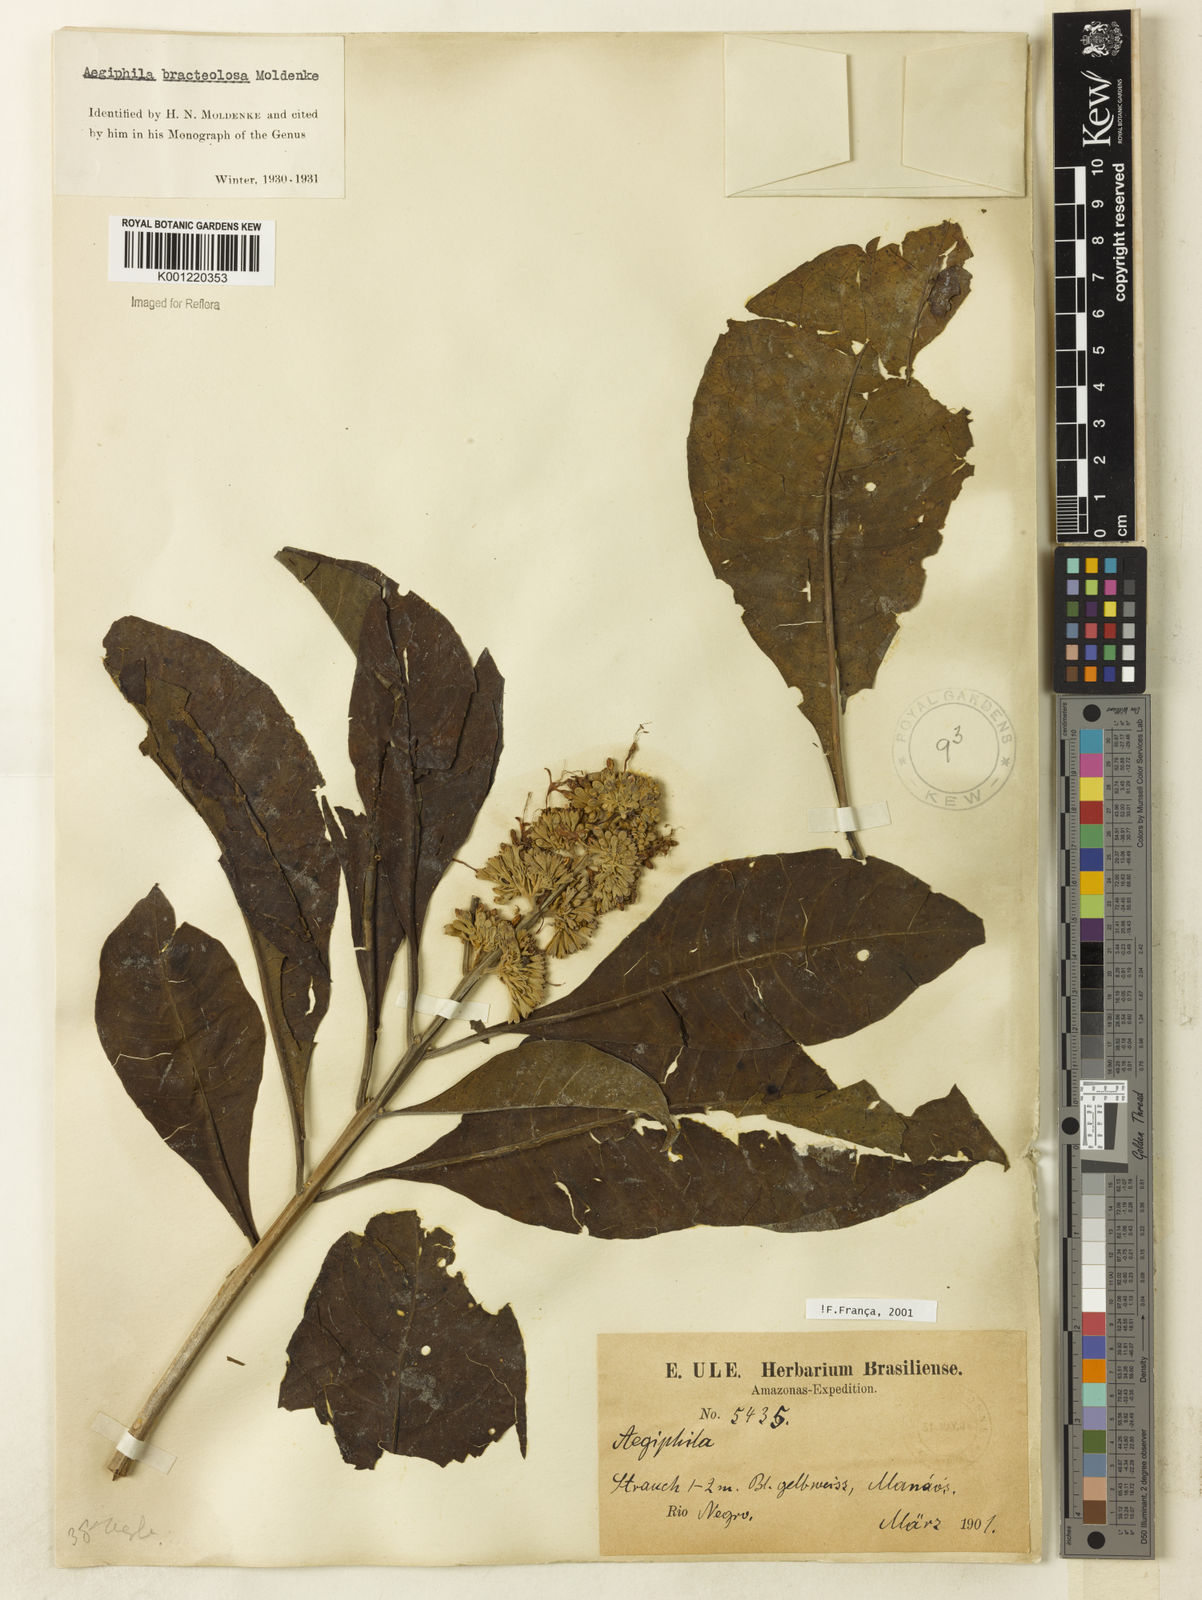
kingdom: Plantae
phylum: Tracheophyta
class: Magnoliopsida
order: Lamiales
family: Lamiaceae
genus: Aegiphila
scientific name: Aegiphila bracteolosa
